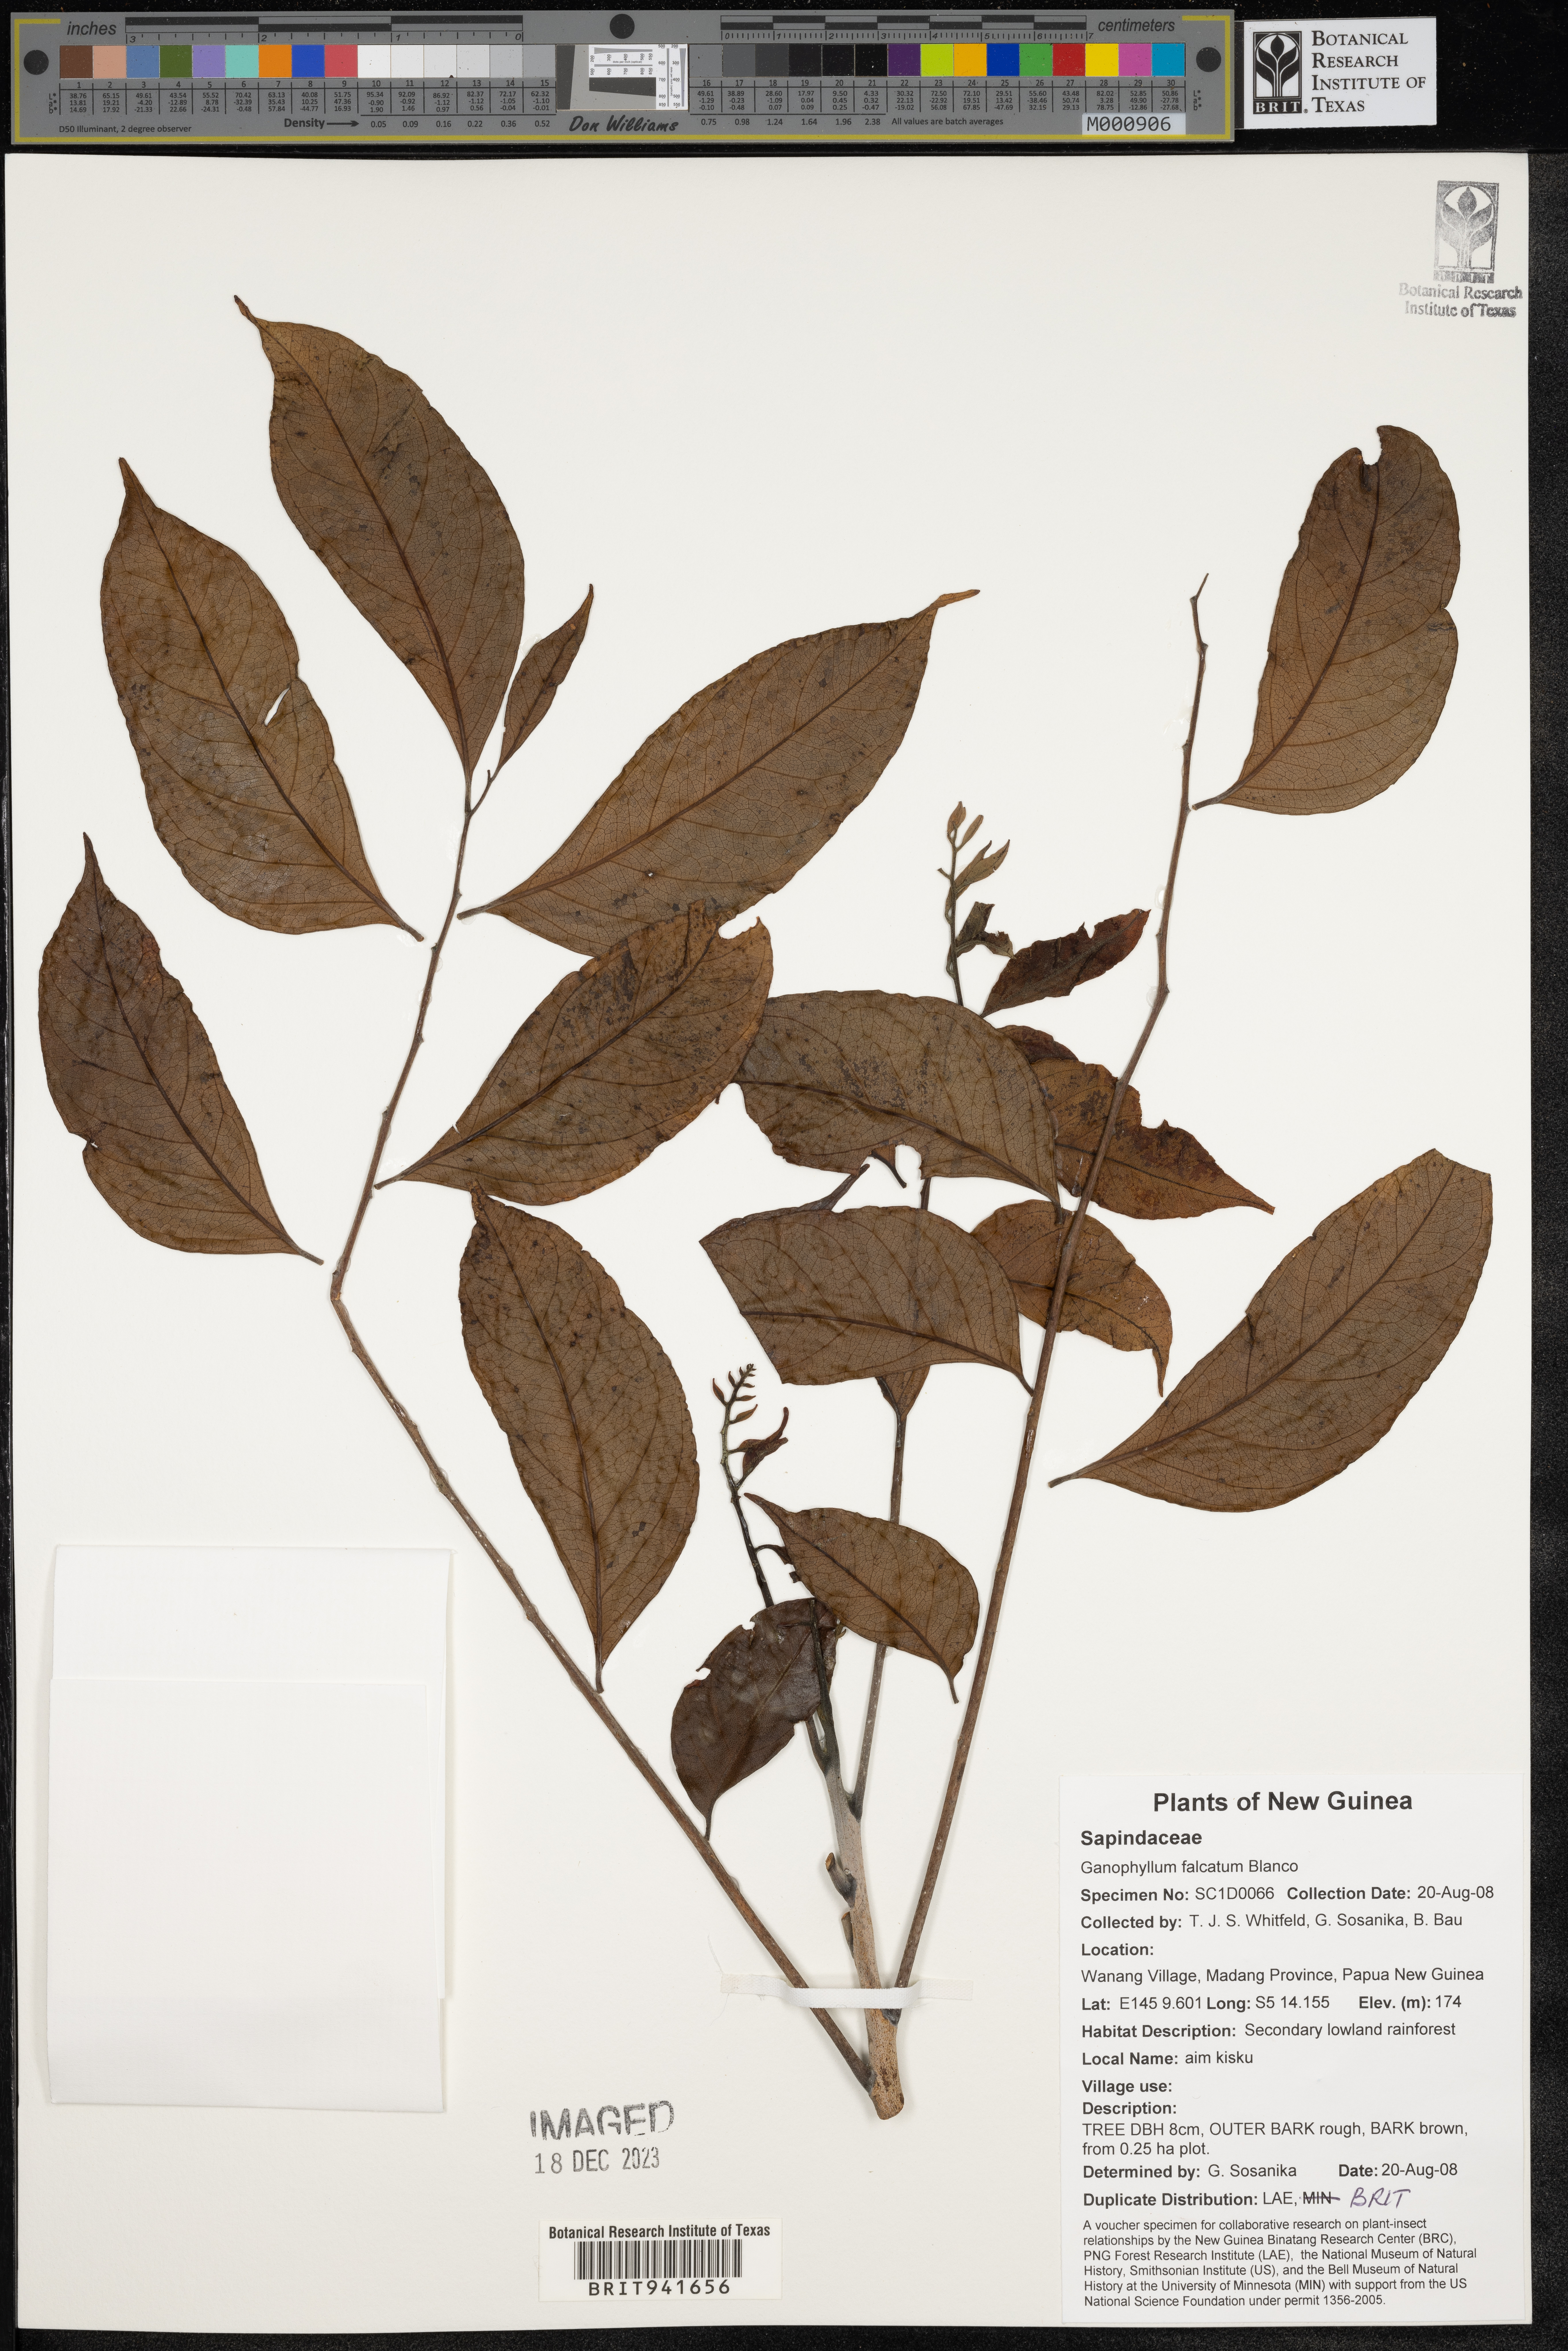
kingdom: Plantae
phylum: Tracheophyta
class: Magnoliopsida
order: Sapindales
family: Sapindaceae
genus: Ganophyllum
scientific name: Ganophyllum
